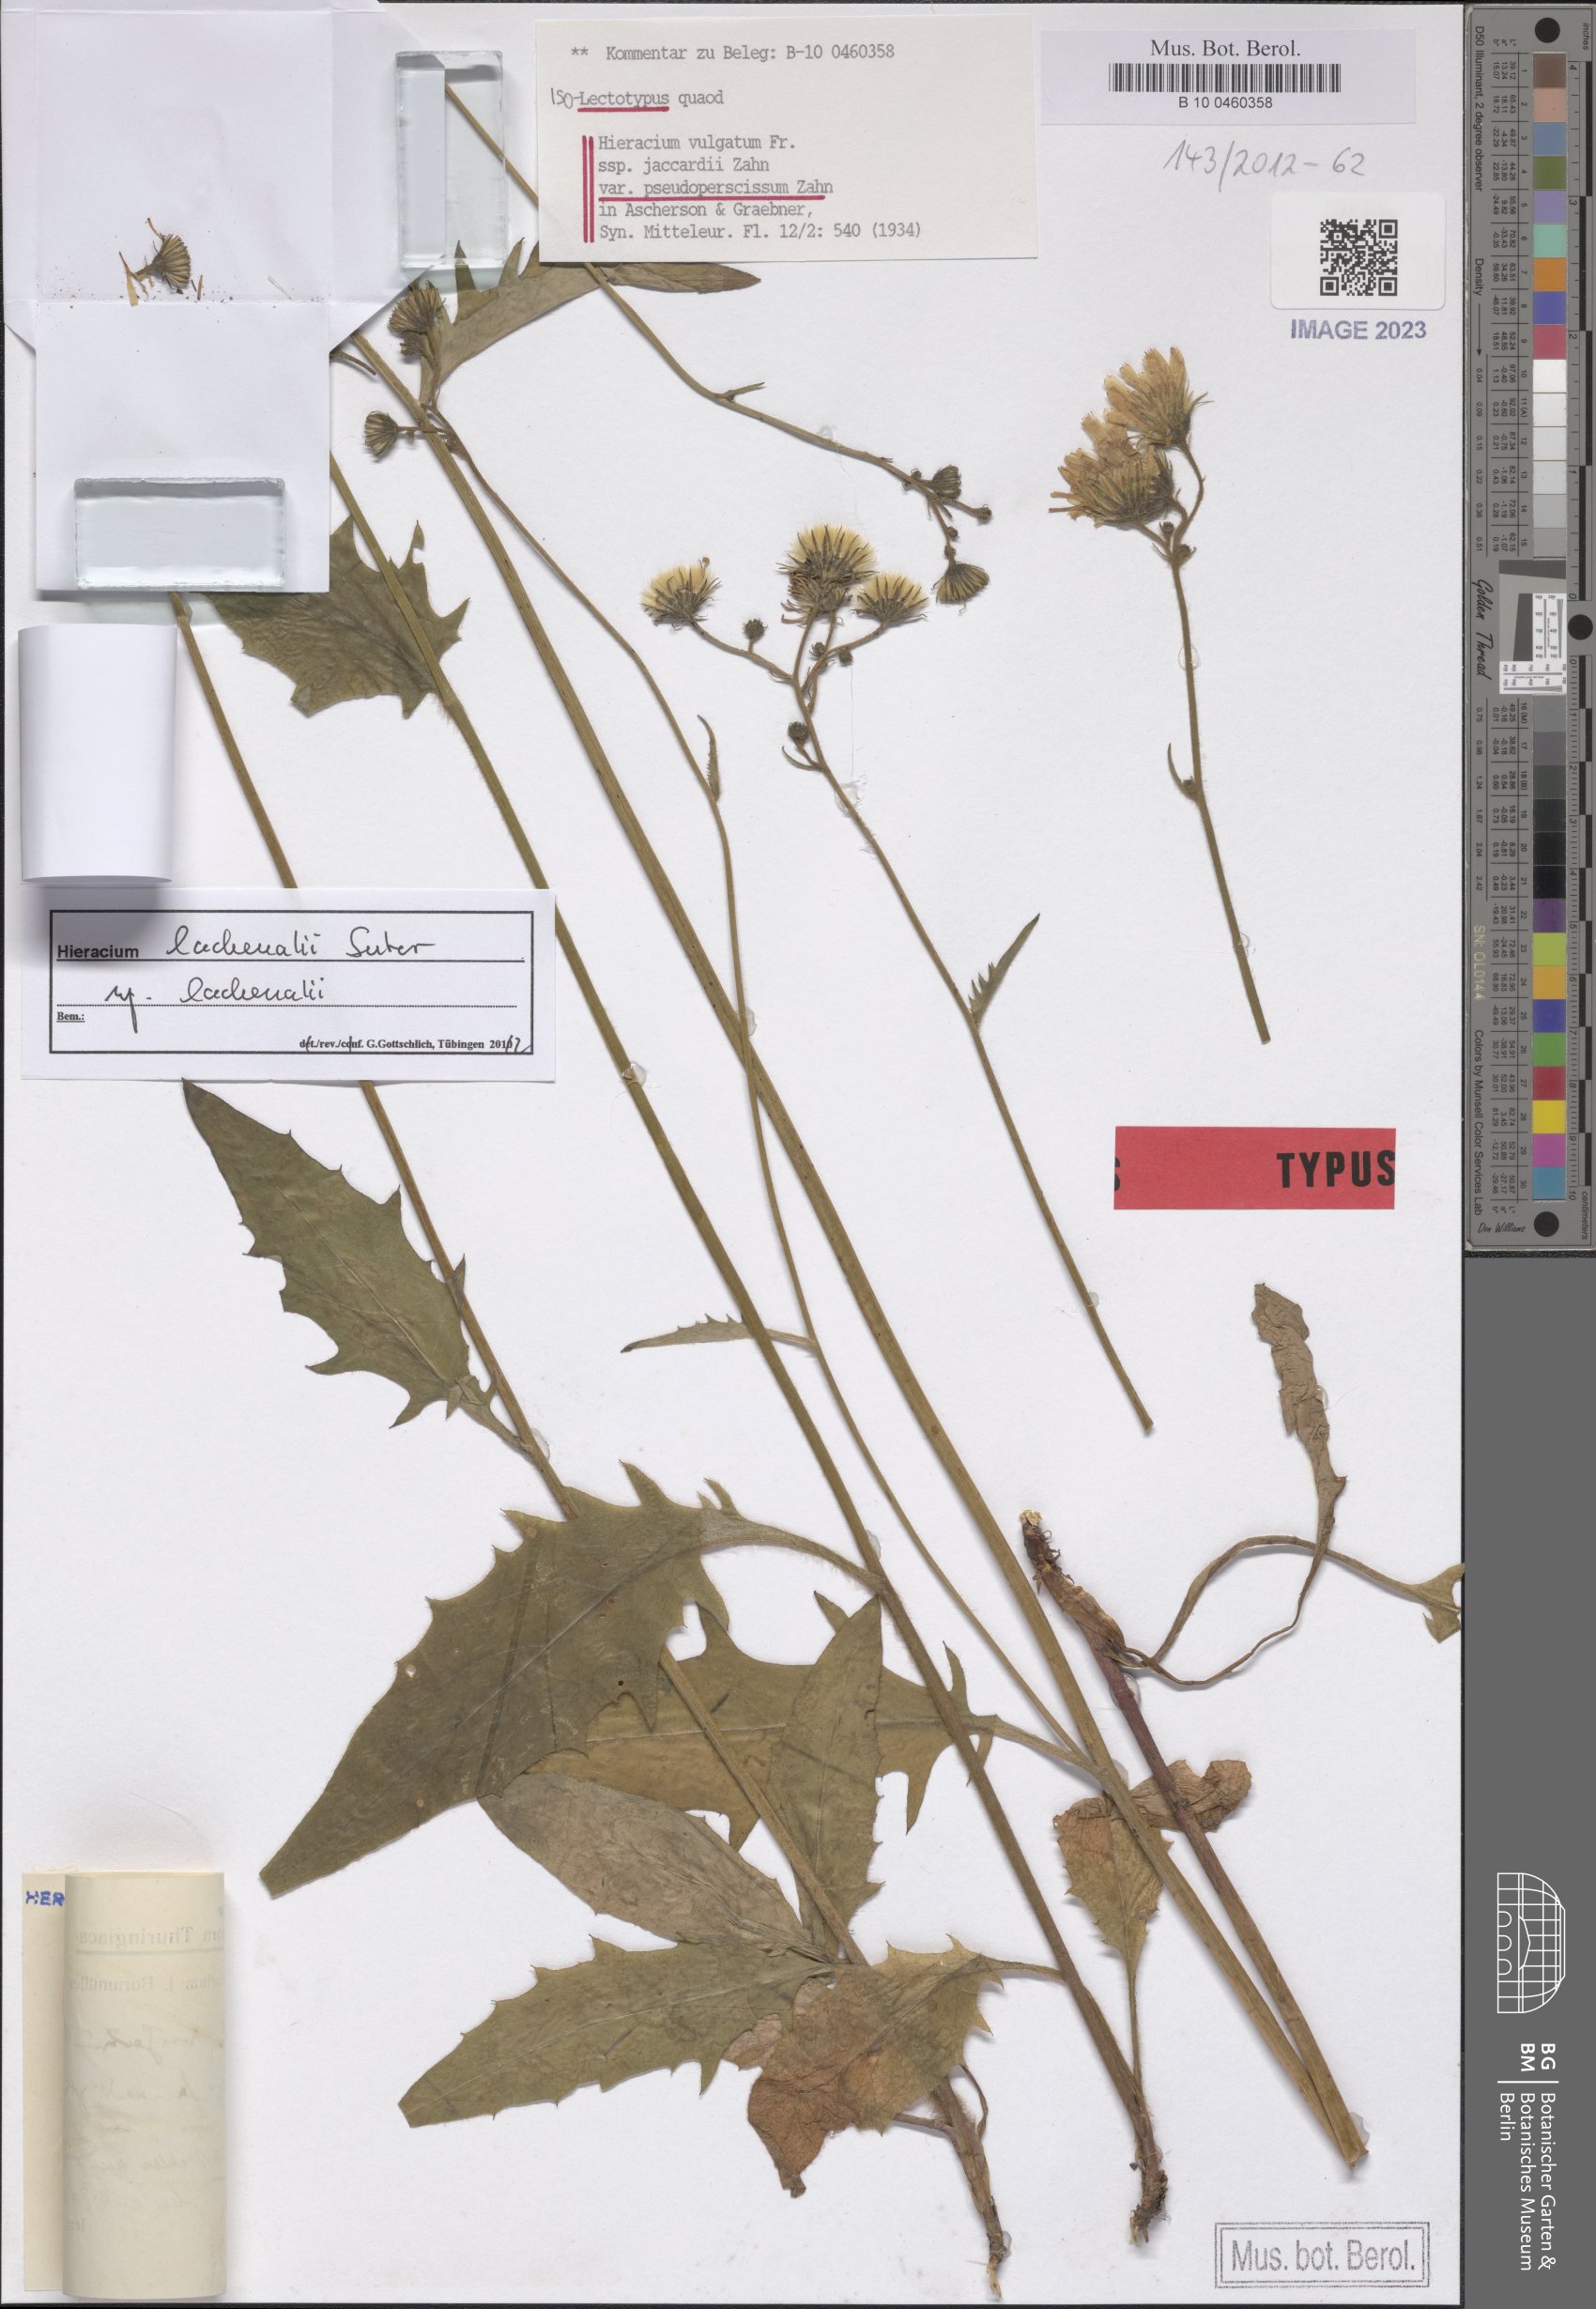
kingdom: Plantae
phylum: Tracheophyta
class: Magnoliopsida
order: Asterales
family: Asteraceae
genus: Hieracium
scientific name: Hieracium vulgatum
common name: Common hawkweed
